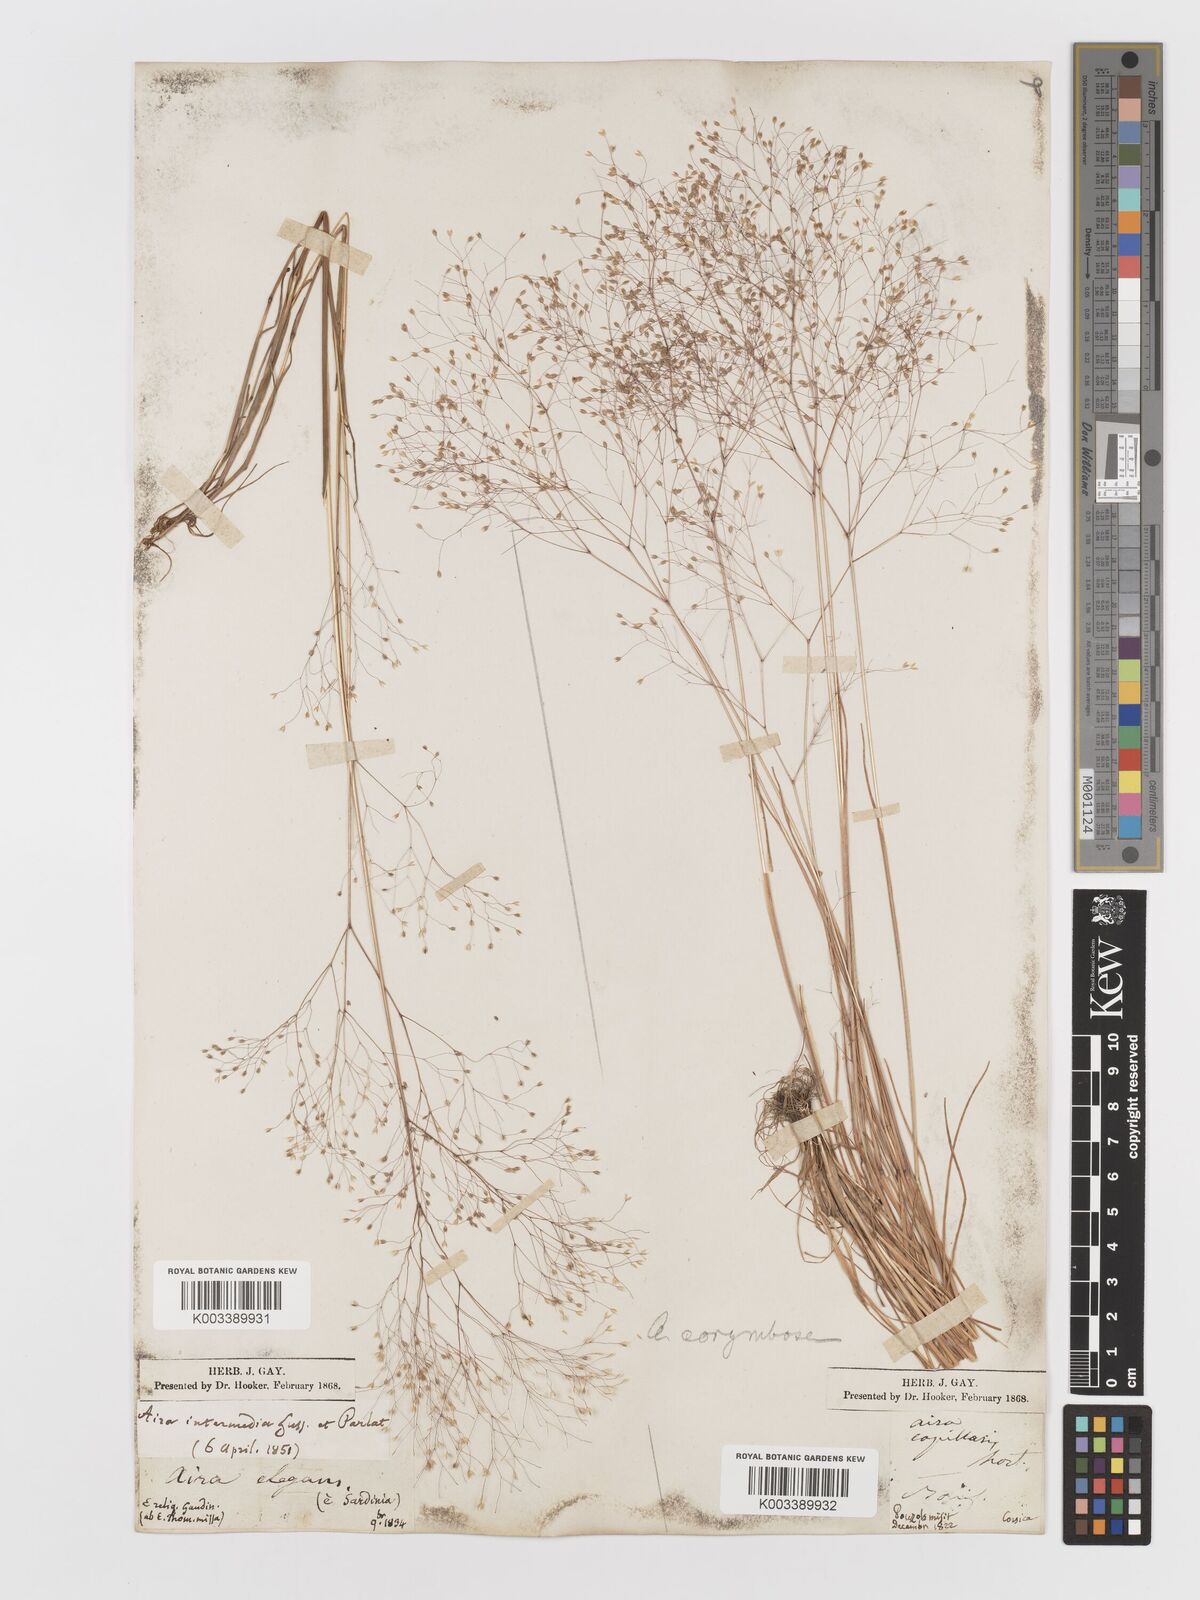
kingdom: Plantae
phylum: Tracheophyta
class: Liliopsida
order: Poales
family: Poaceae
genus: Aira
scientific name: Aira
